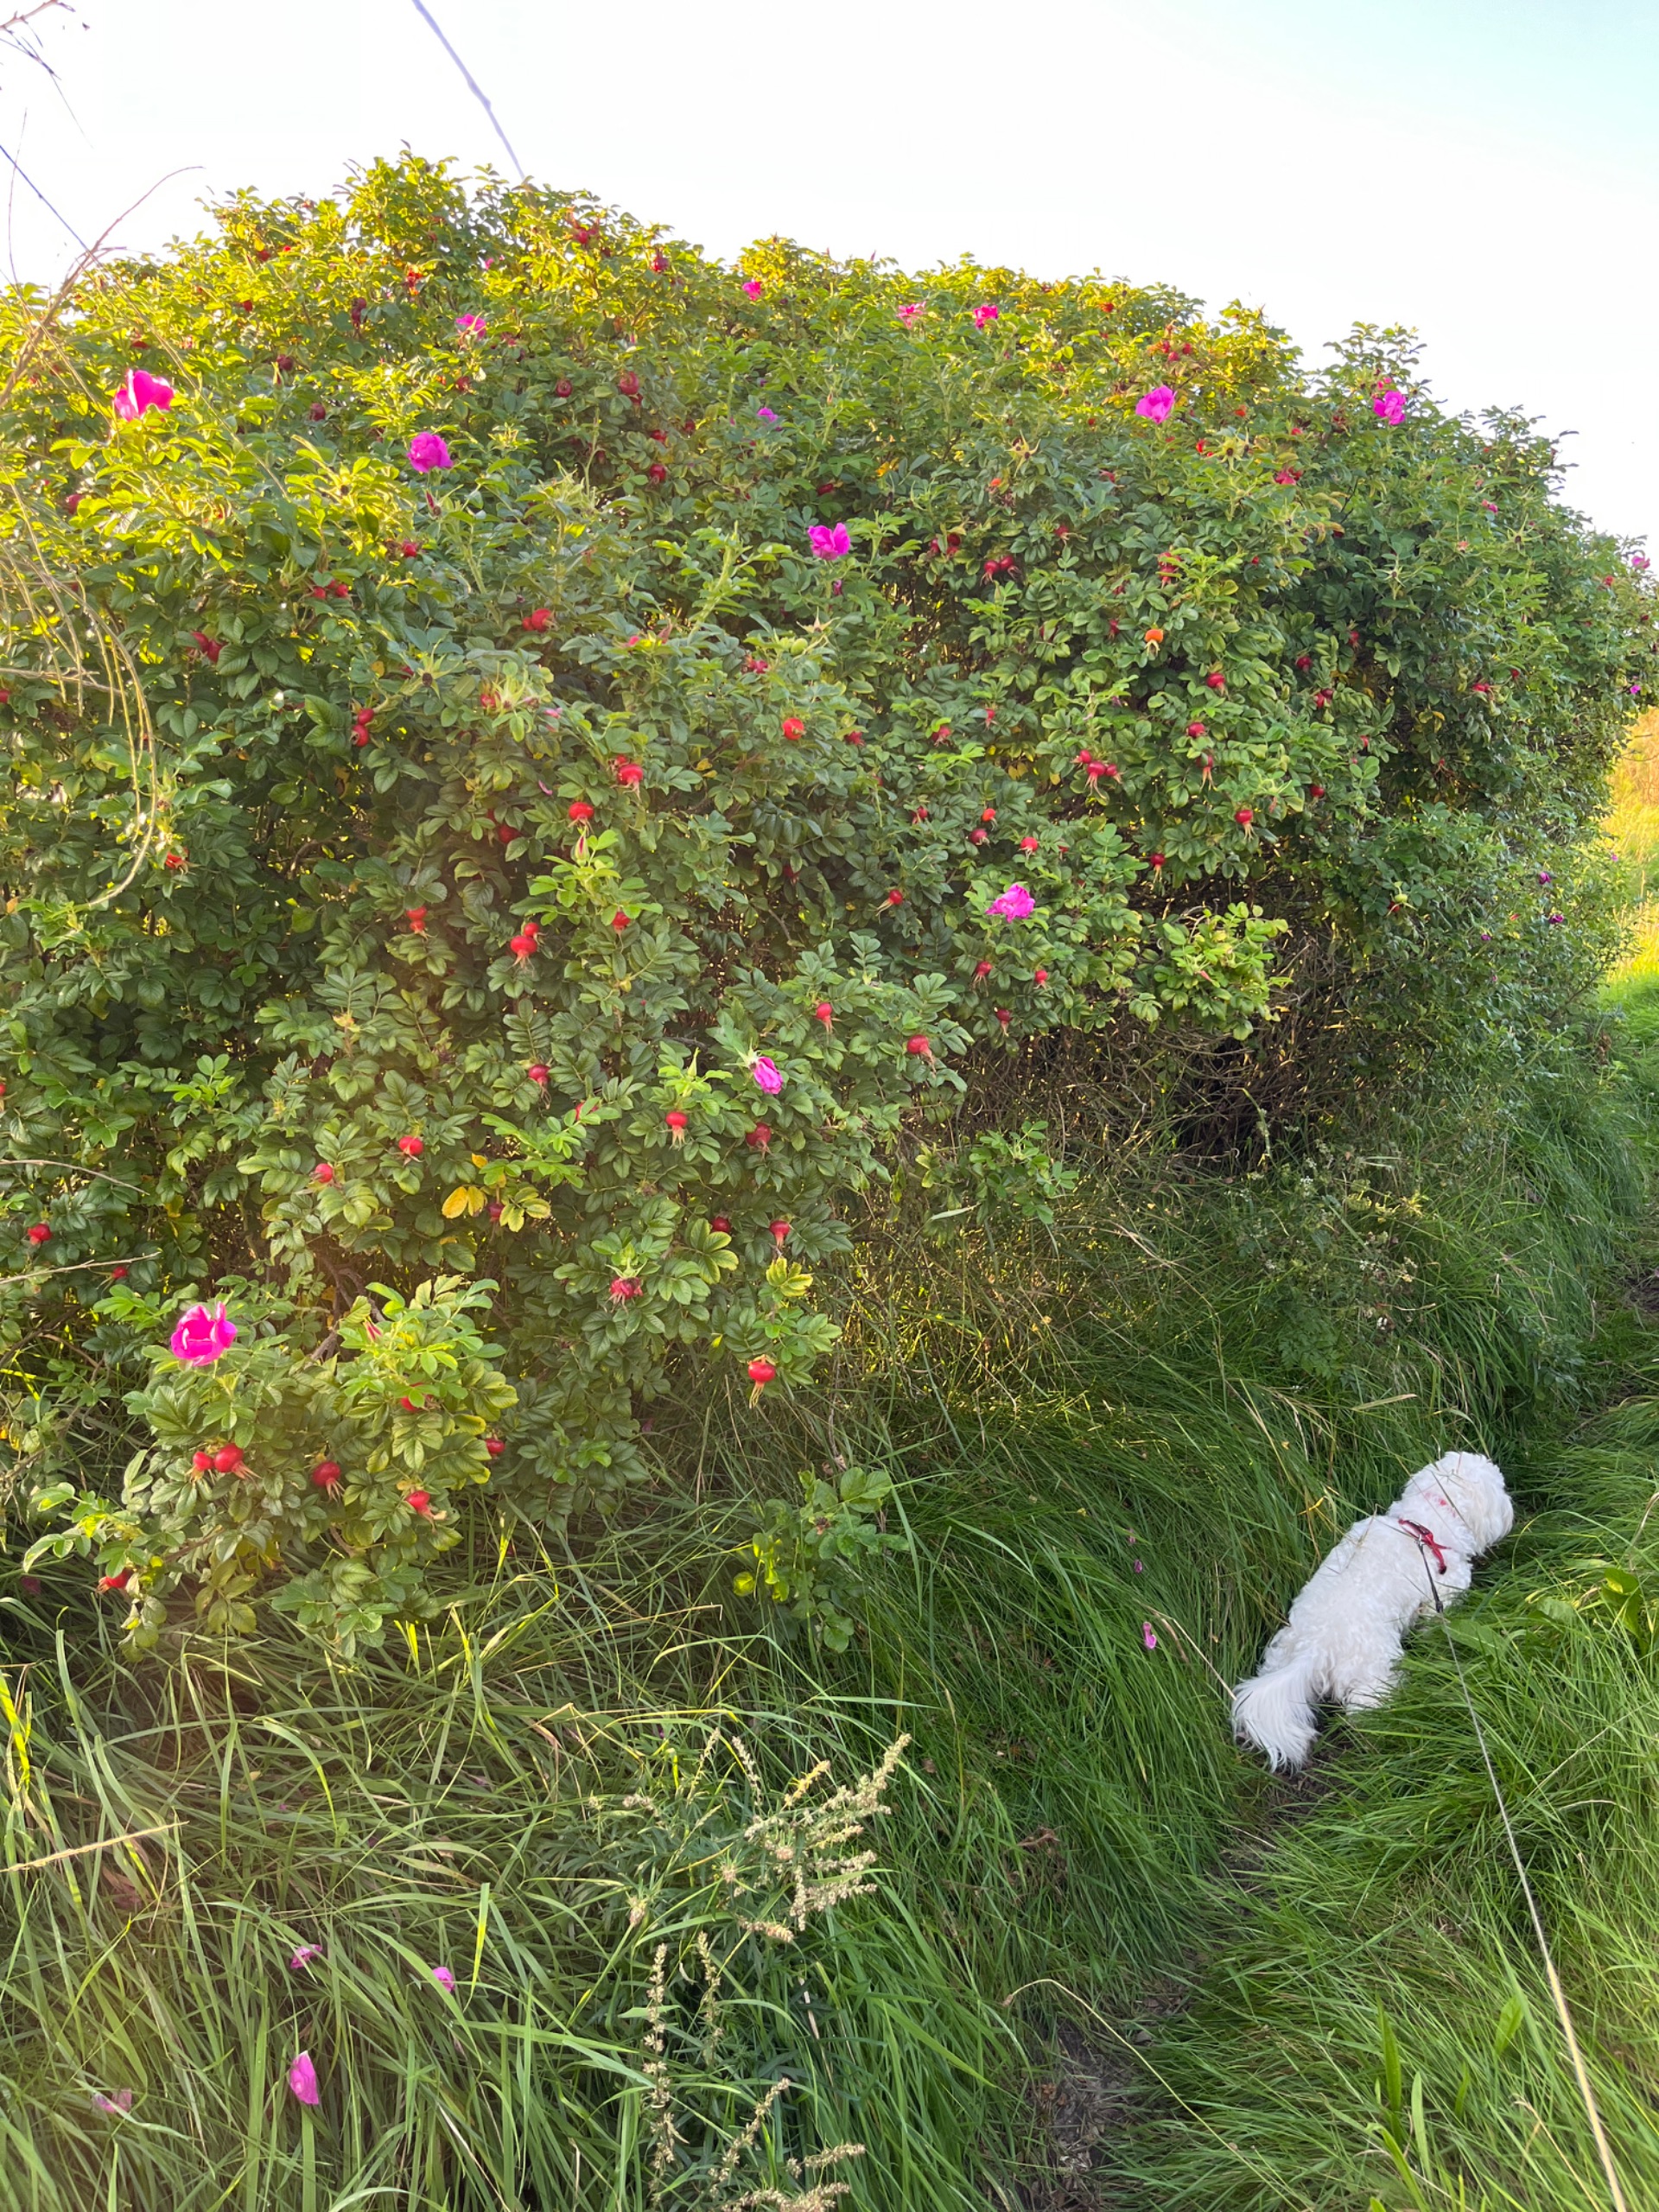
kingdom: Plantae
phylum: Tracheophyta
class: Magnoliopsida
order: Rosales
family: Rosaceae
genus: Rosa
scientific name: Rosa rugosa
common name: Rynket rose
